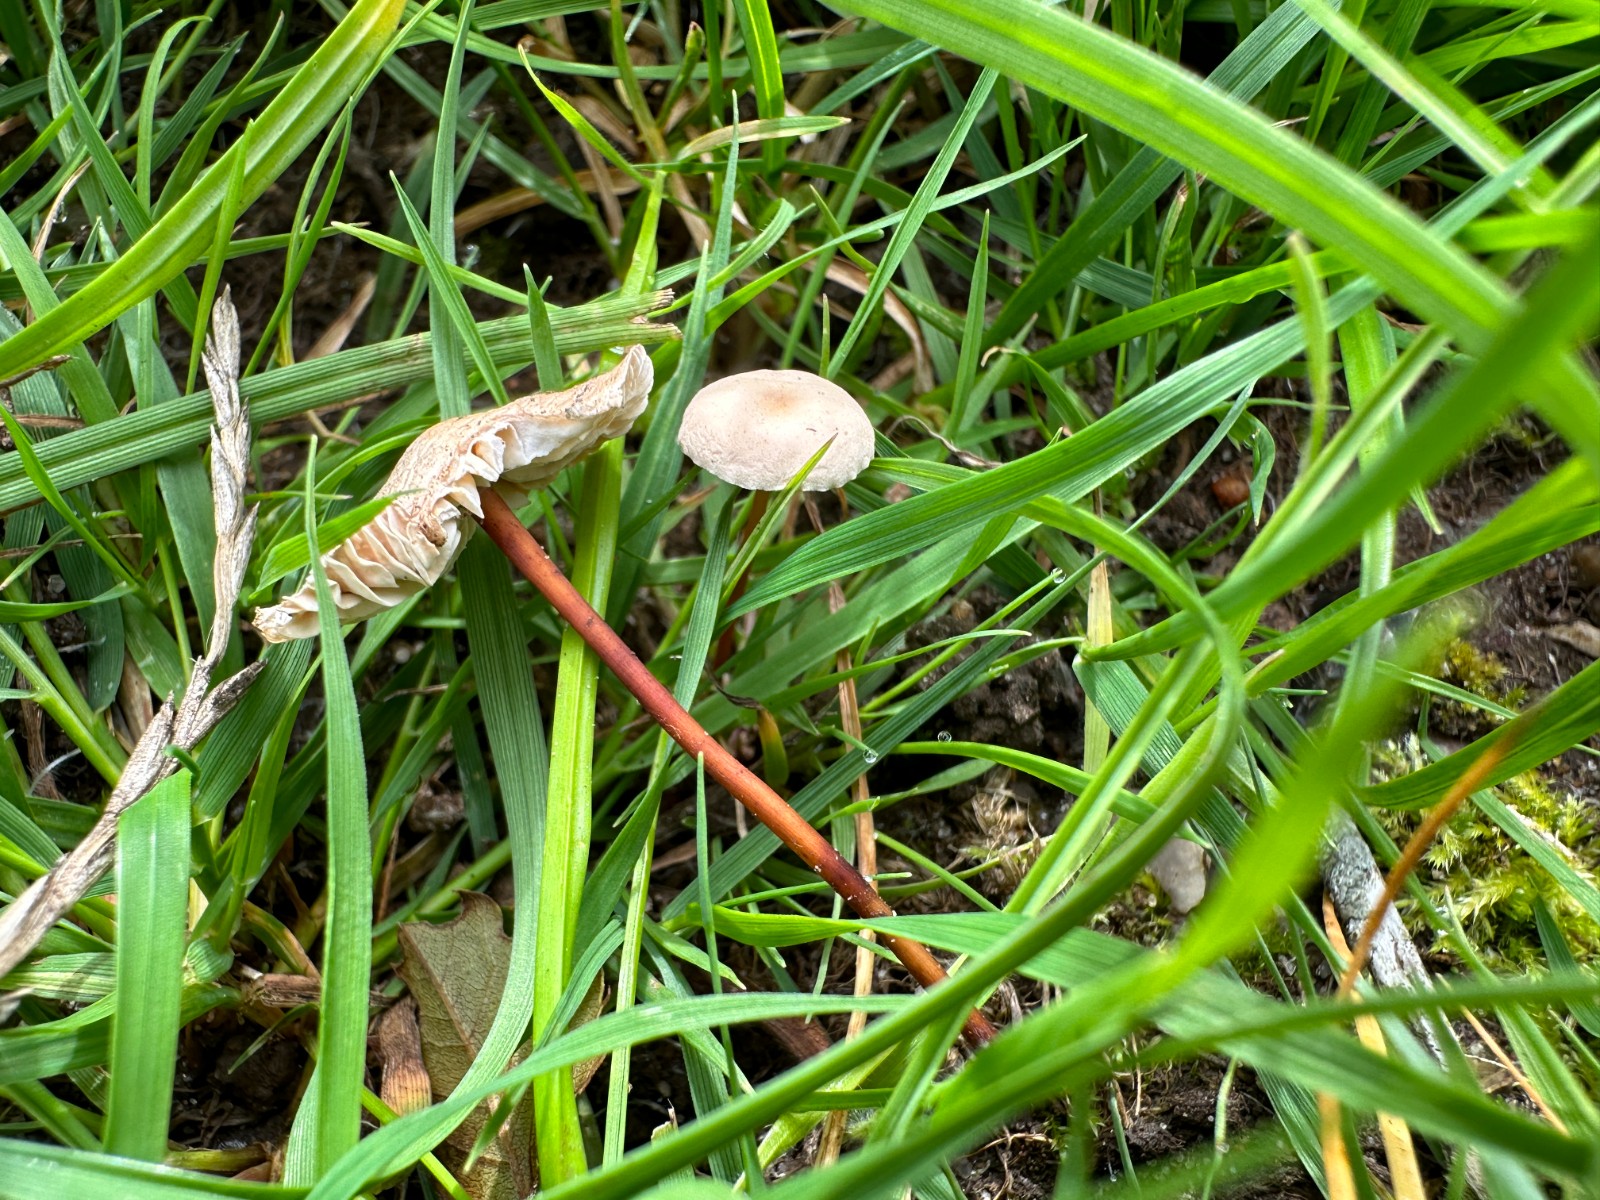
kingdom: Fungi
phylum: Basidiomycota
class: Agaricomycetes
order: Agaricales
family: Omphalotaceae
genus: Mycetinis
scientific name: Mycetinis scorodonius
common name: lille løghat
